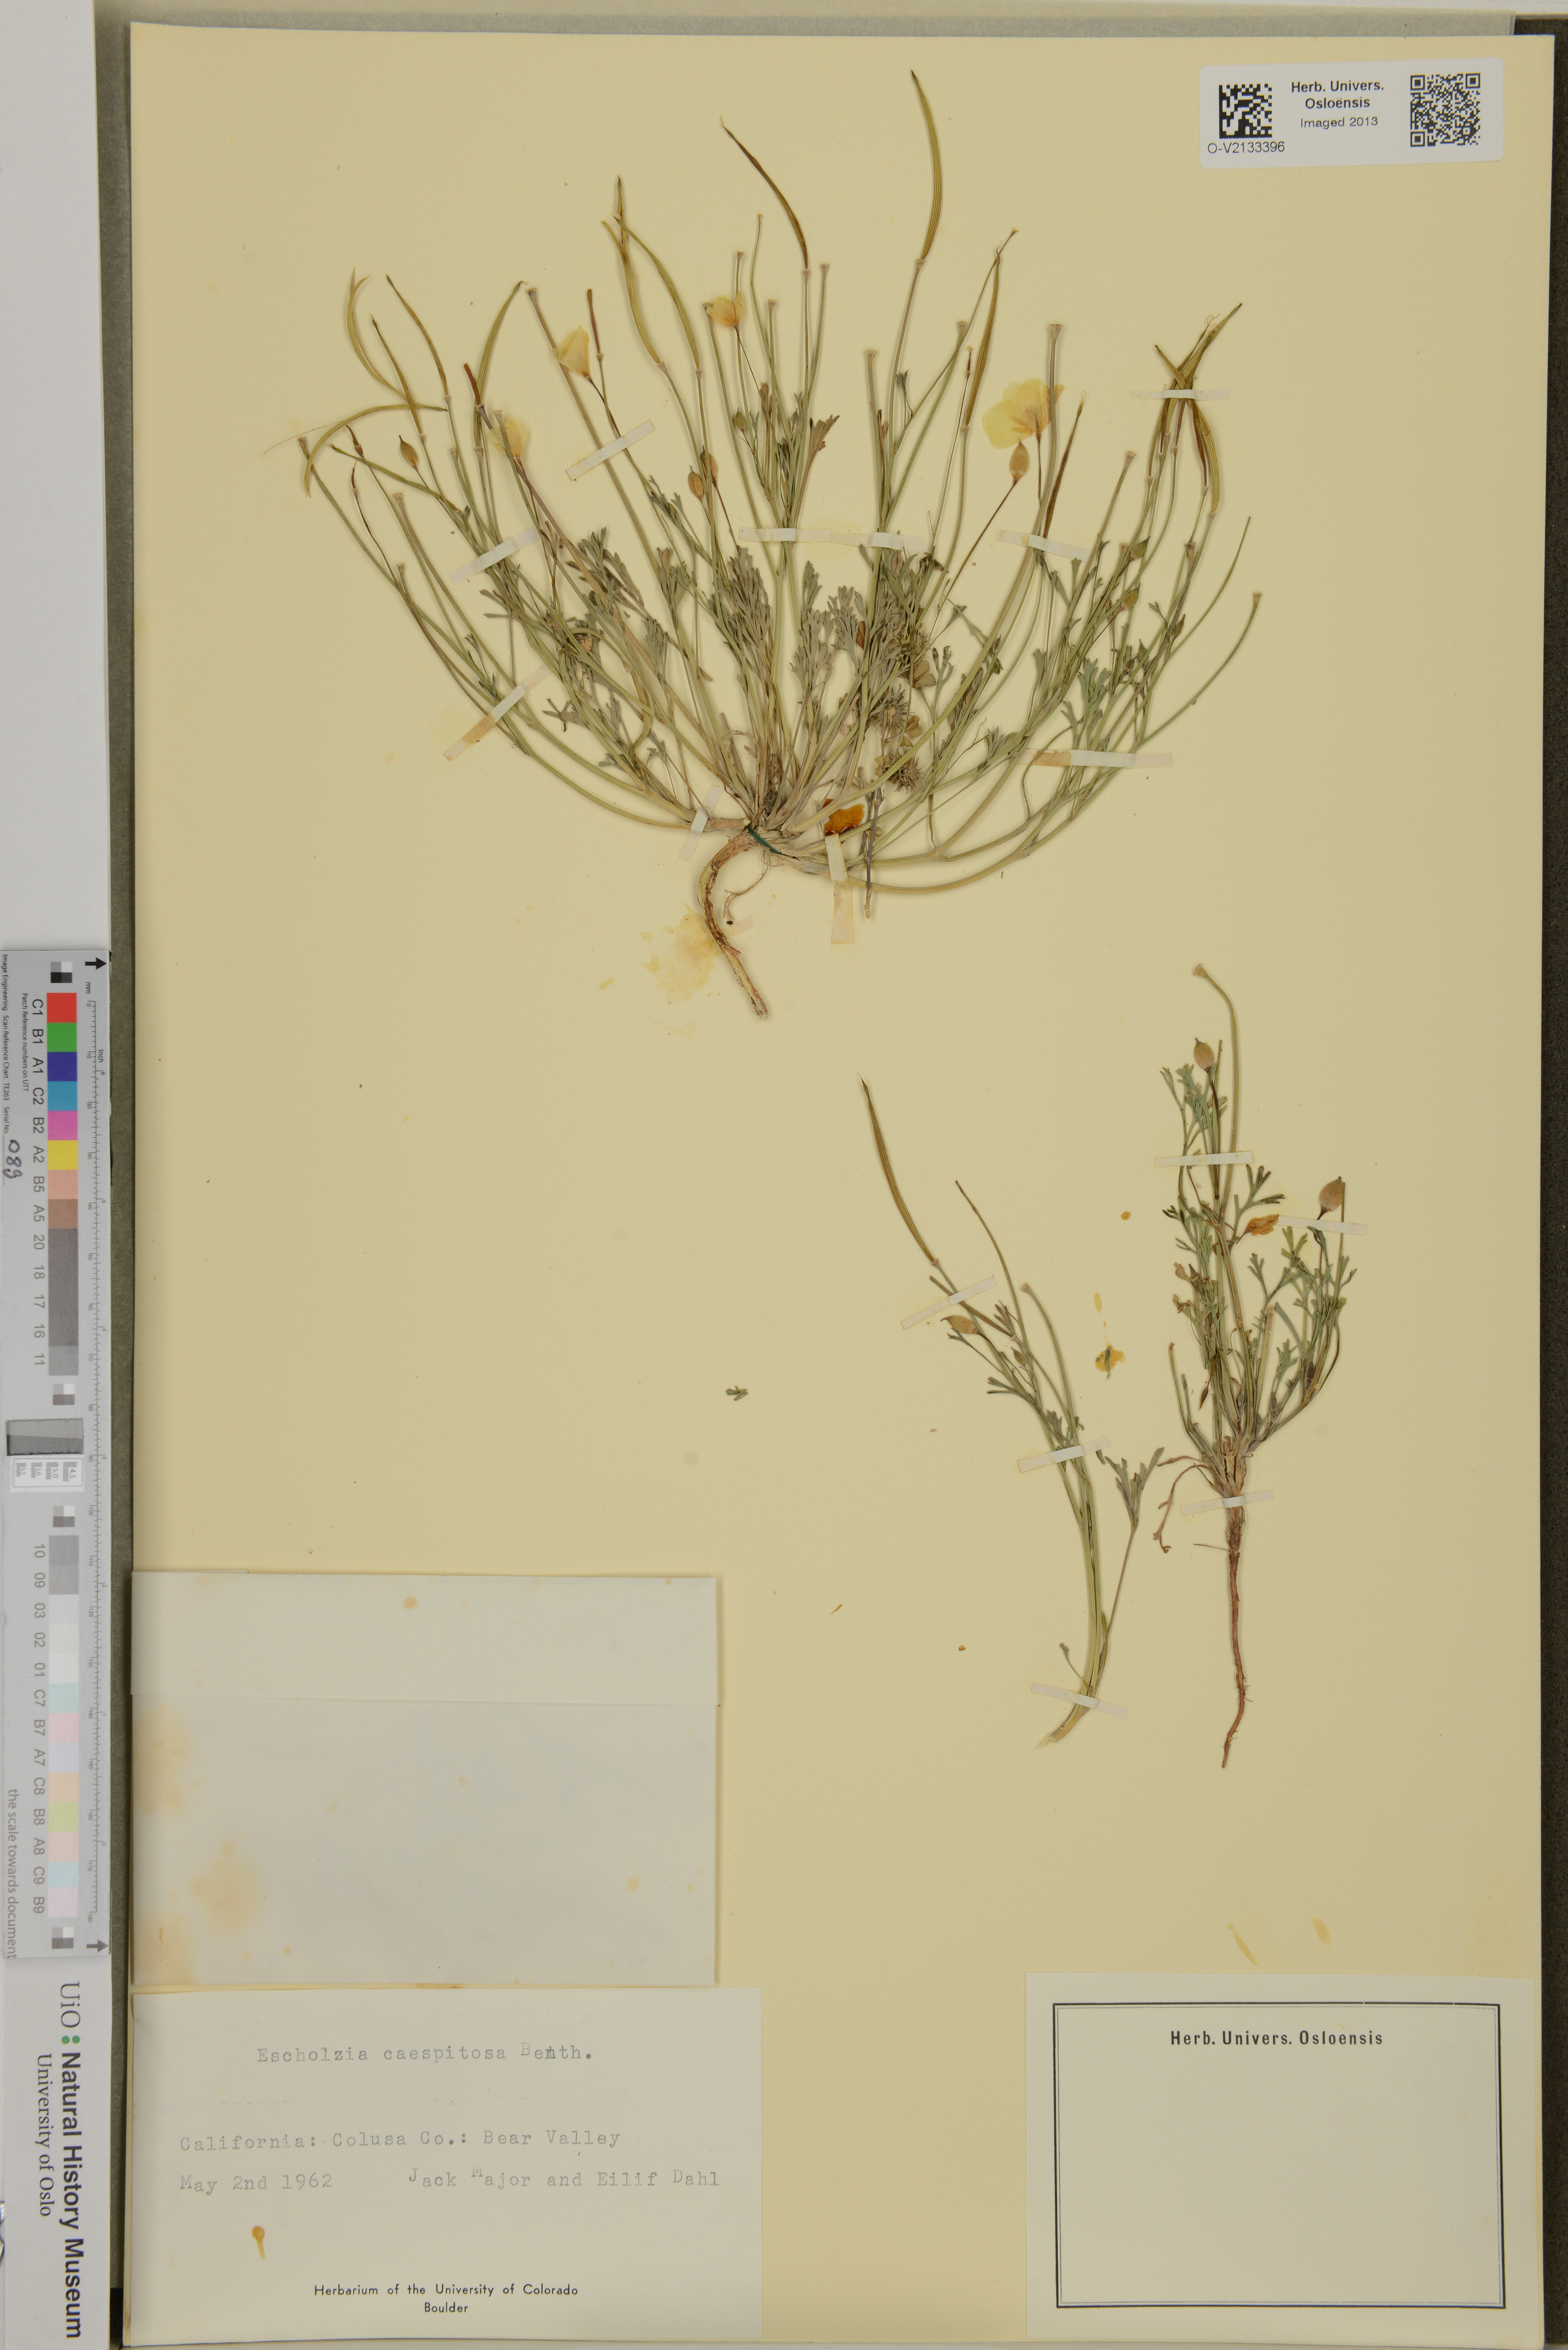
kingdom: Plantae
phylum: Tracheophyta
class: Magnoliopsida
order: Ranunculales
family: Papaveraceae
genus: Eschscholzia
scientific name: Eschscholzia caespitosa
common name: Tufted california-poppy
